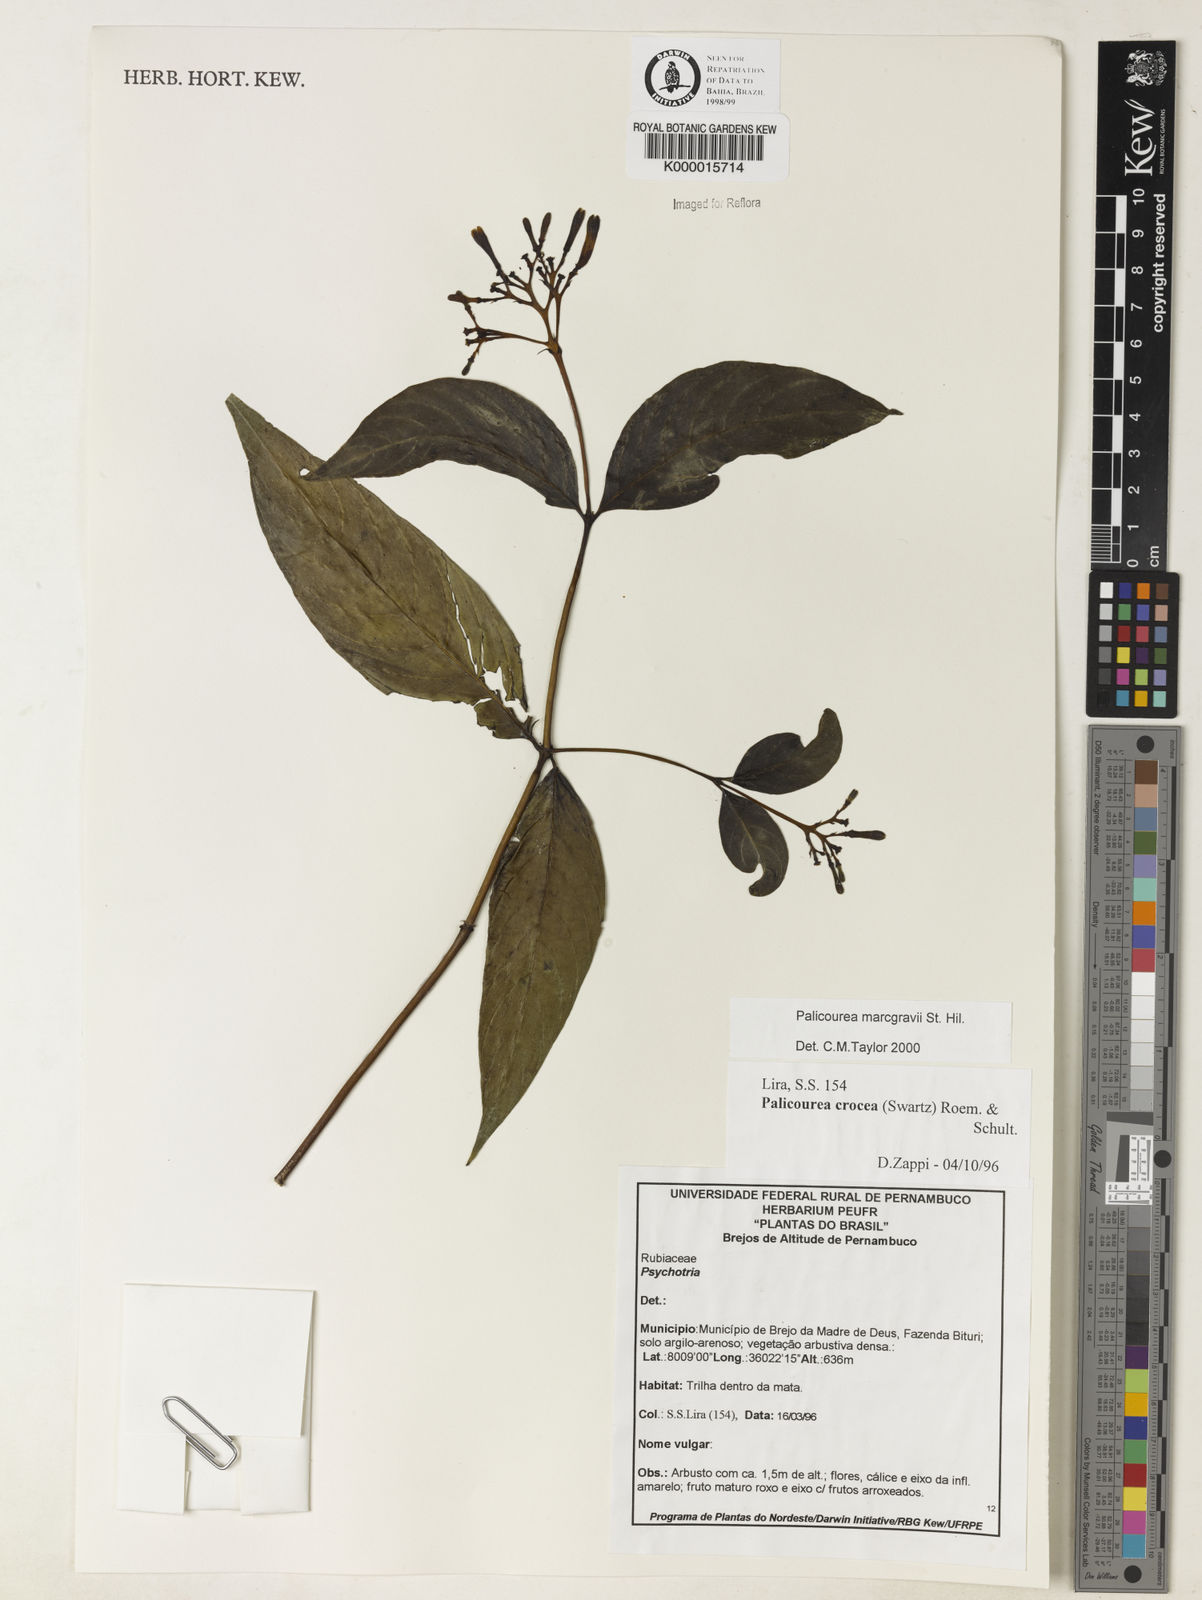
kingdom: Plantae
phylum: Tracheophyta
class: Magnoliopsida
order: Gentianales
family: Rubiaceae
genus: Palicourea
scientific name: Palicourea marcgravii
